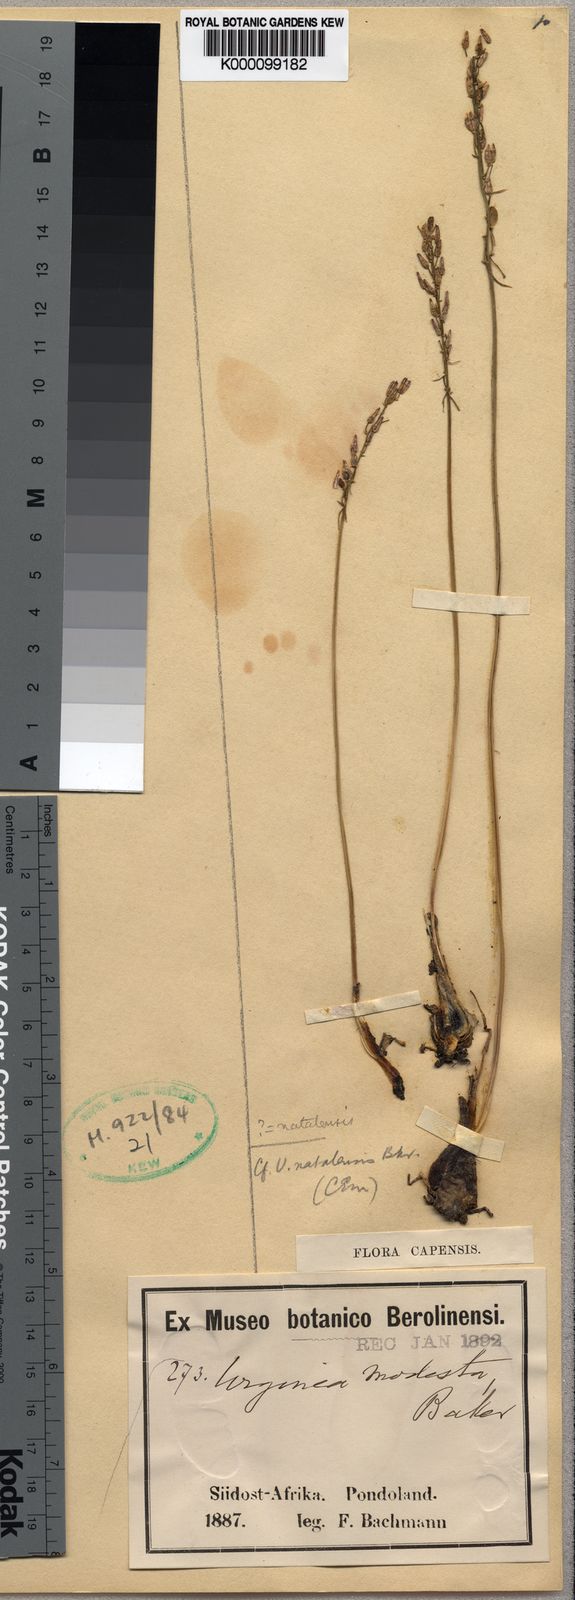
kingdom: Plantae
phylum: Tracheophyta
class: Liliopsida
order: Asparagales
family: Asparagaceae
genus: Drimia
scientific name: Drimia modesta
